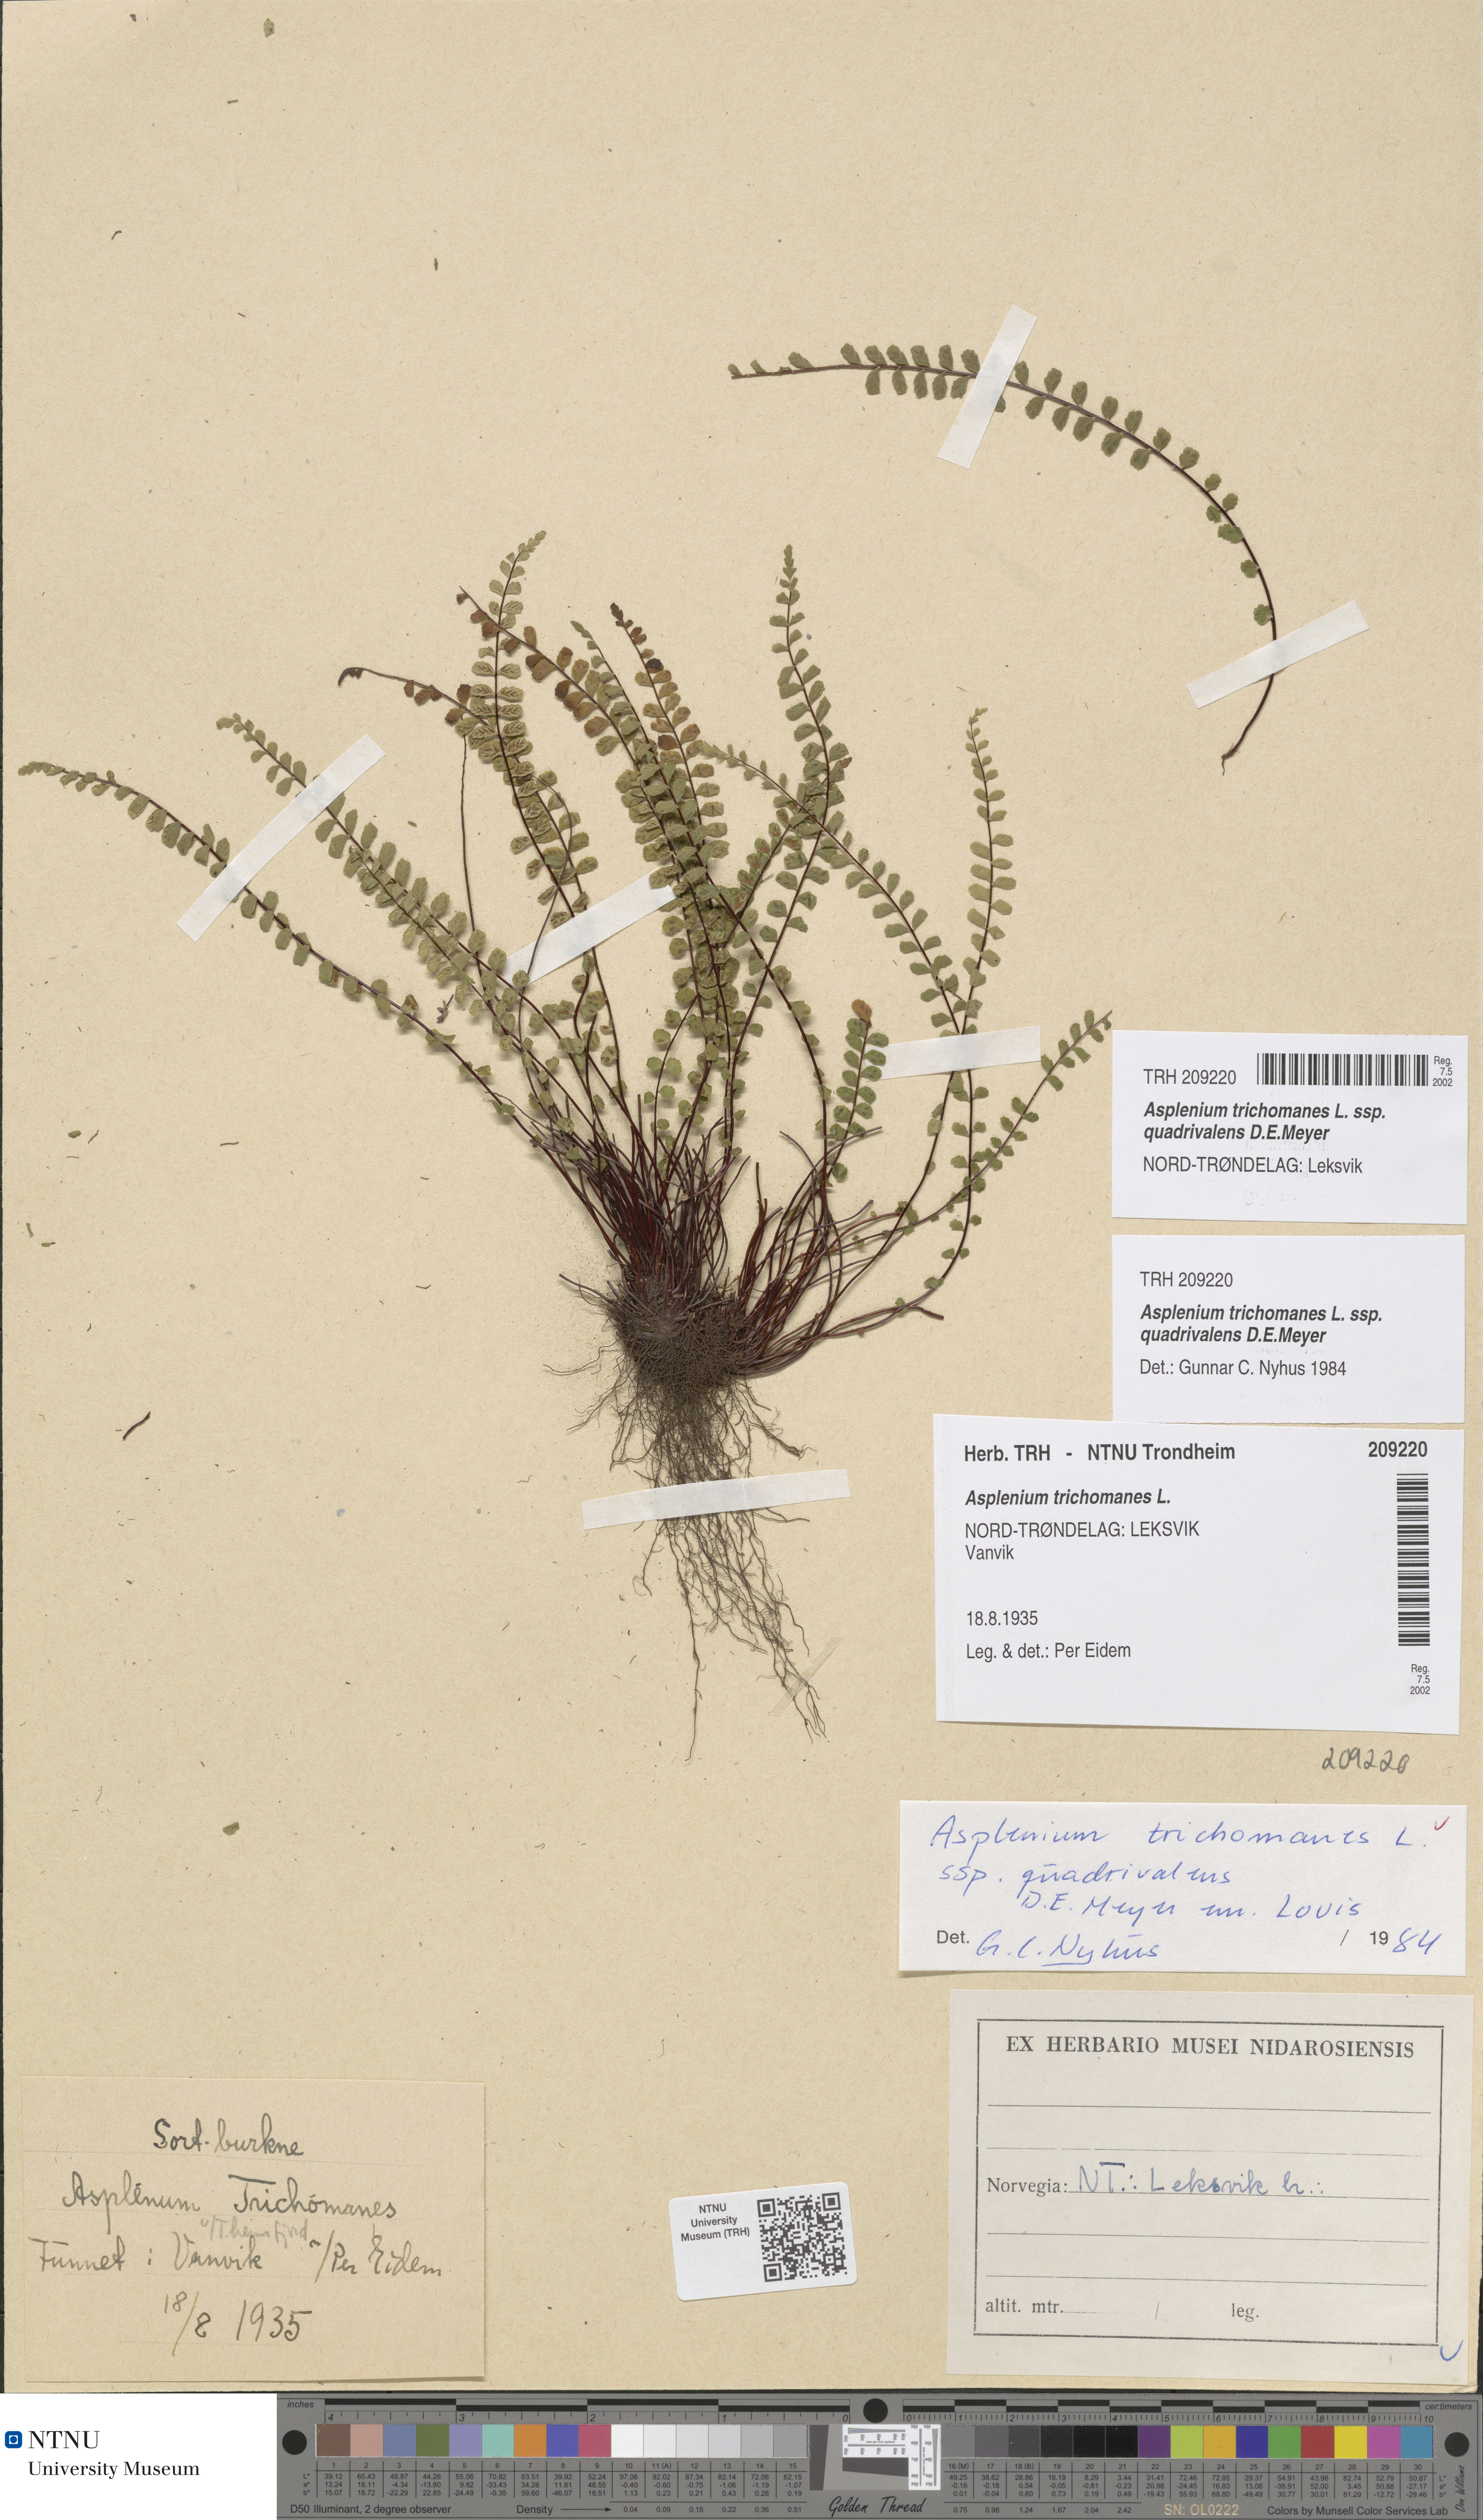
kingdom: Plantae
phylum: Tracheophyta
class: Polypodiopsida
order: Polypodiales
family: Aspleniaceae
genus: Asplenium
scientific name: Asplenium quadrivalens
